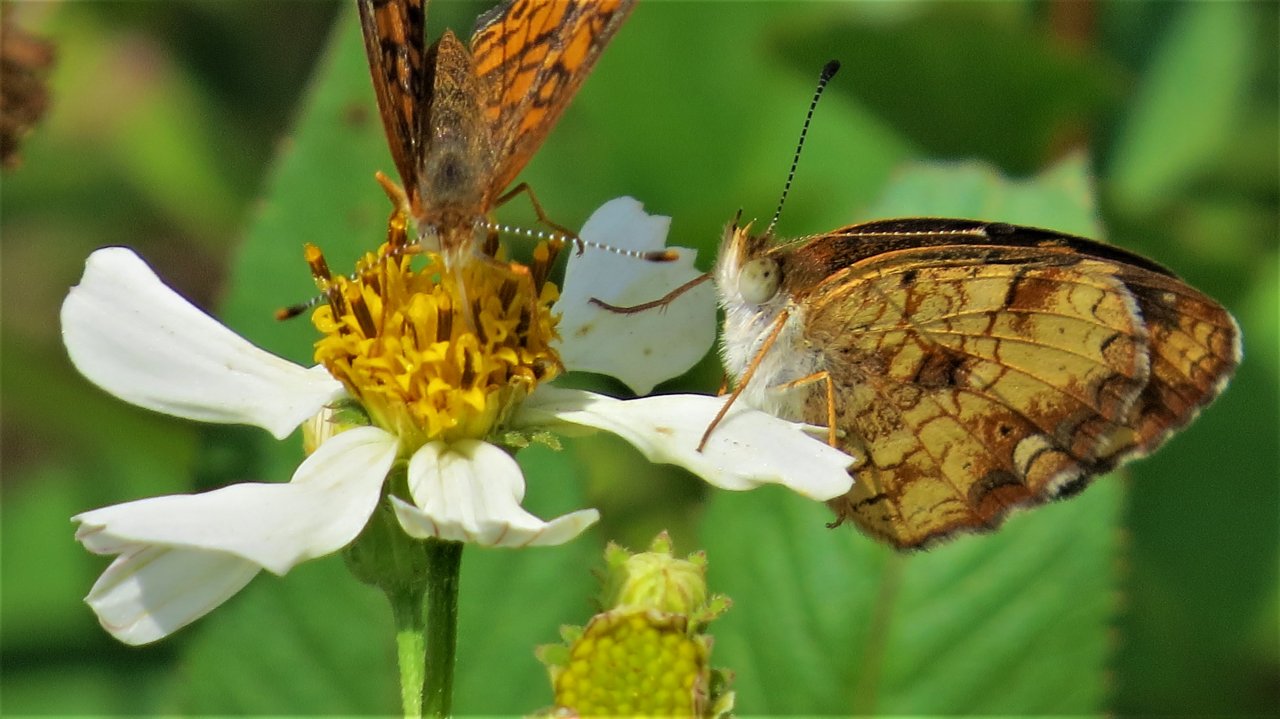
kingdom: Animalia
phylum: Arthropoda
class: Insecta
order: Lepidoptera
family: Nymphalidae
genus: Phyciodes
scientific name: Phyciodes tharos
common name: Pearl Crescent
